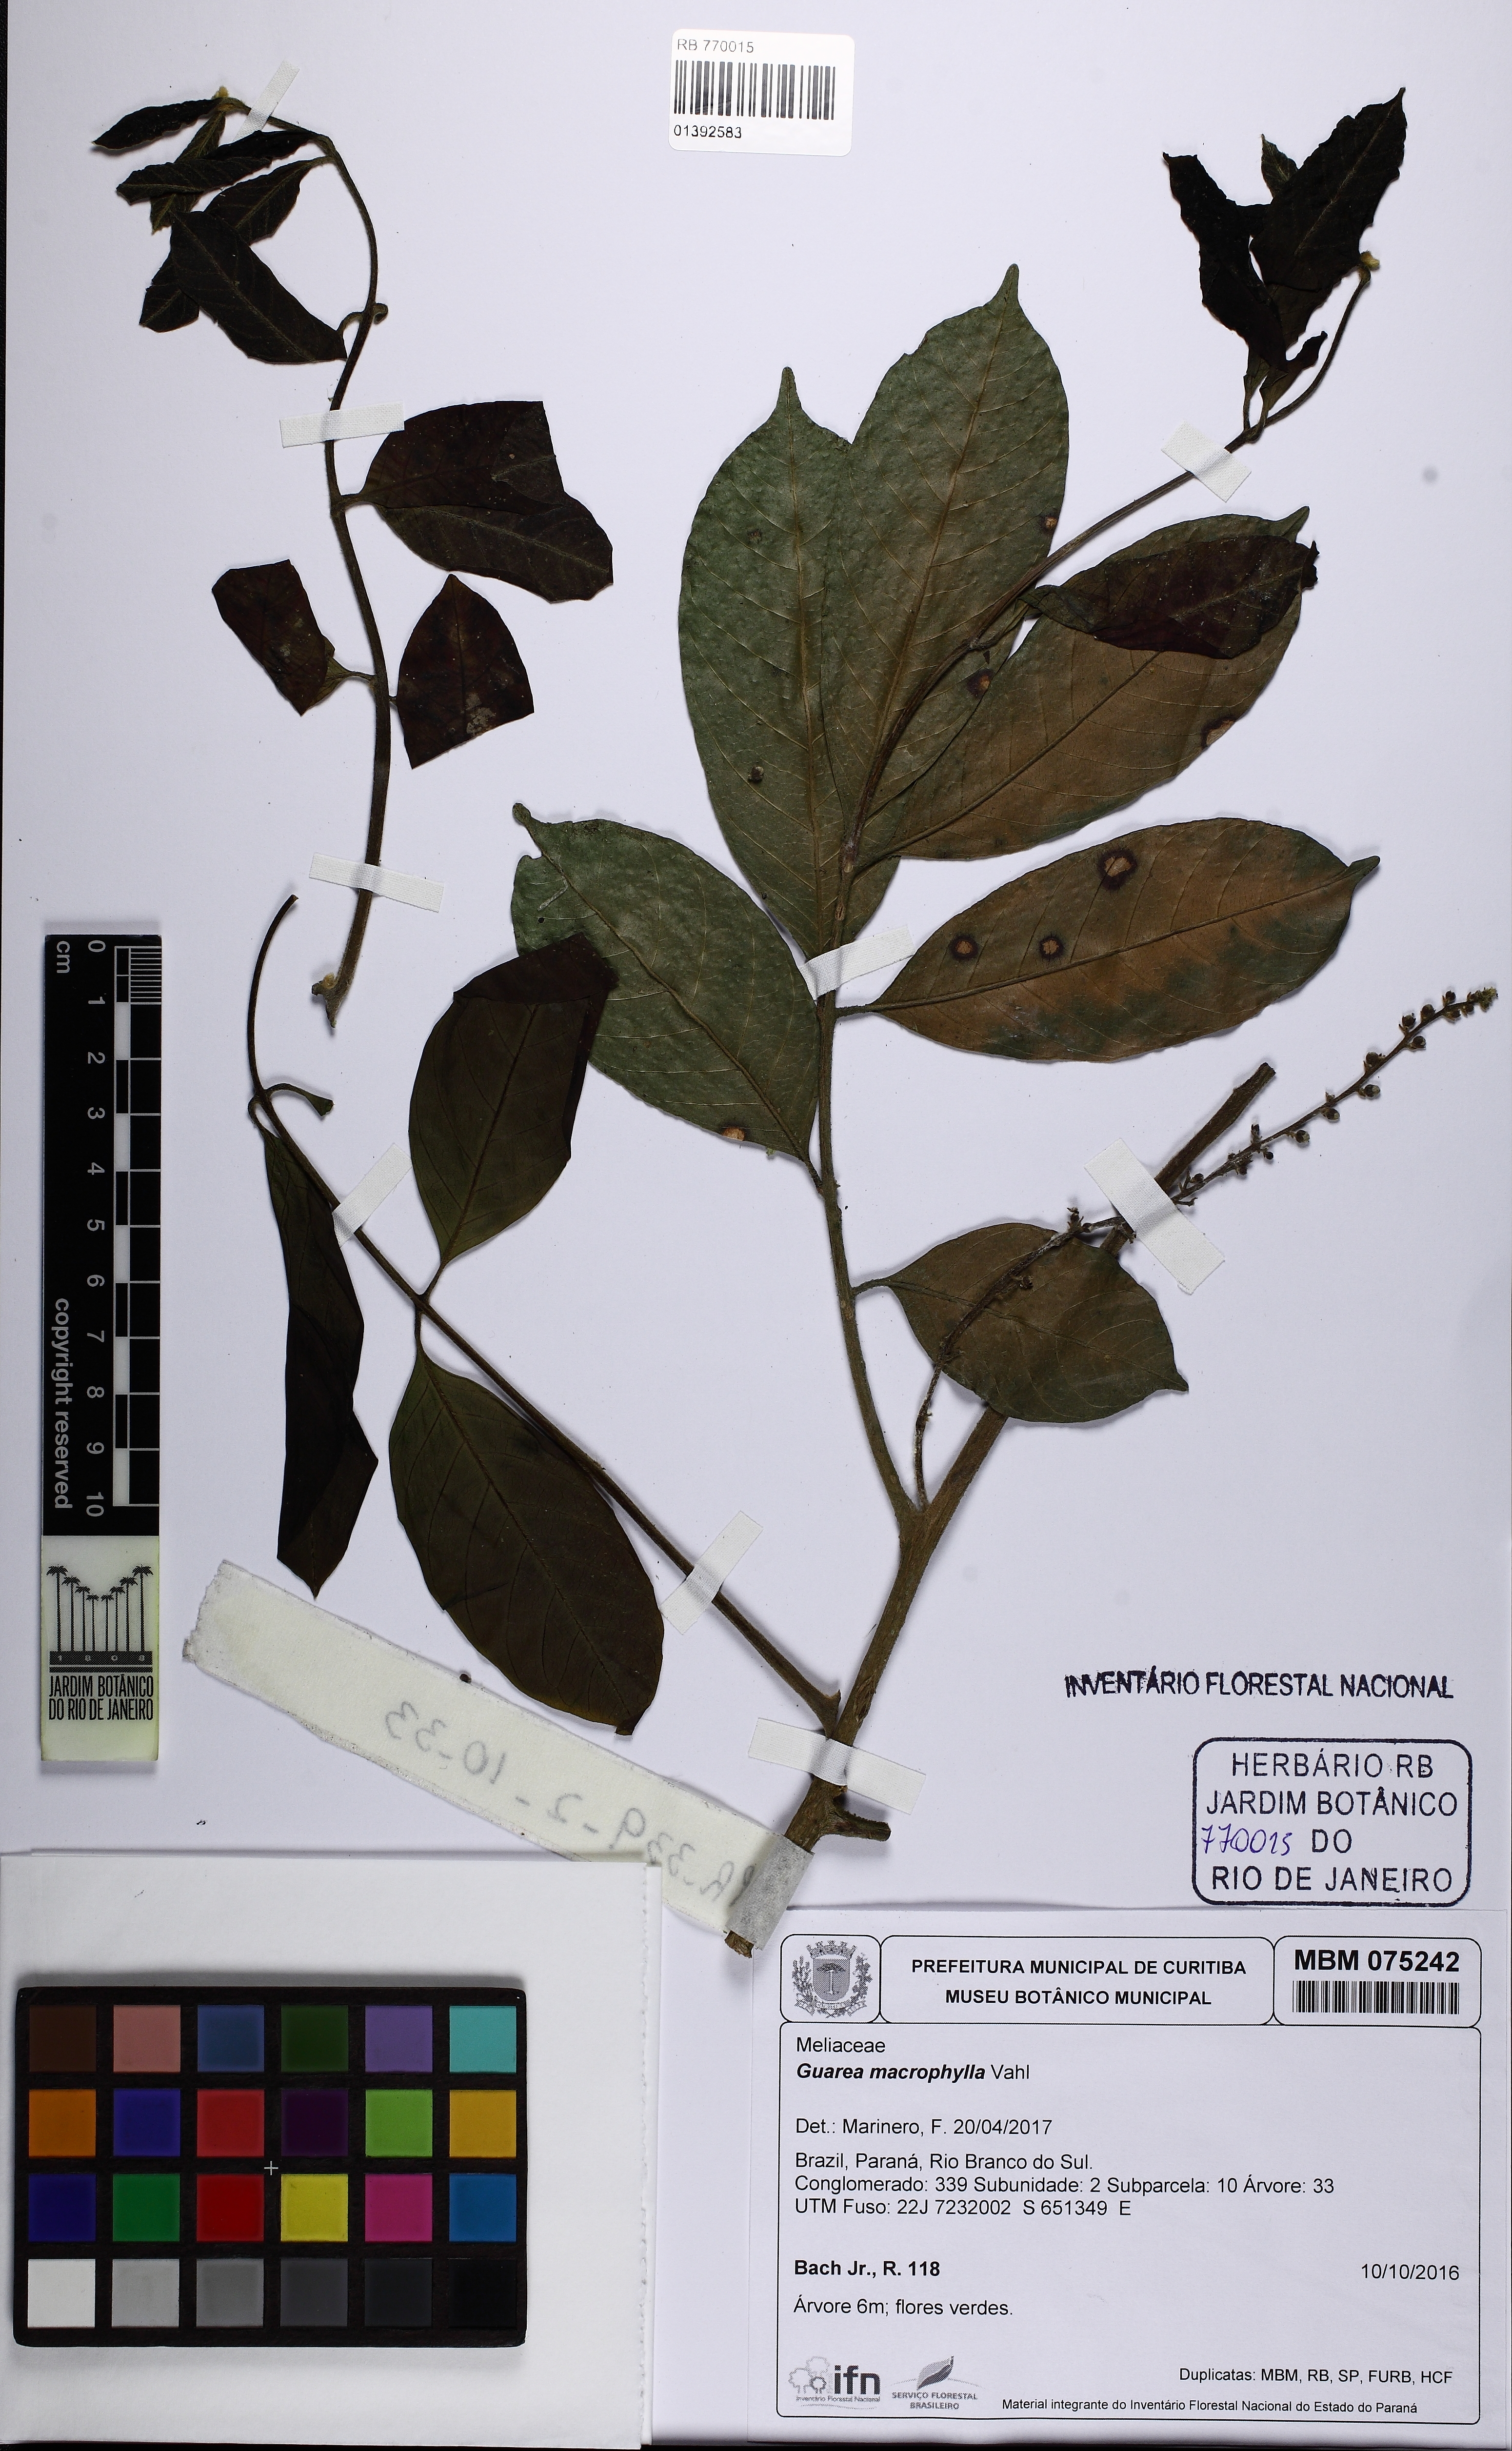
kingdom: Plantae
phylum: Tracheophyta
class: Magnoliopsida
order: Sapindales
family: Meliaceae
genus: Guarea
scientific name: Guarea macrophylla
